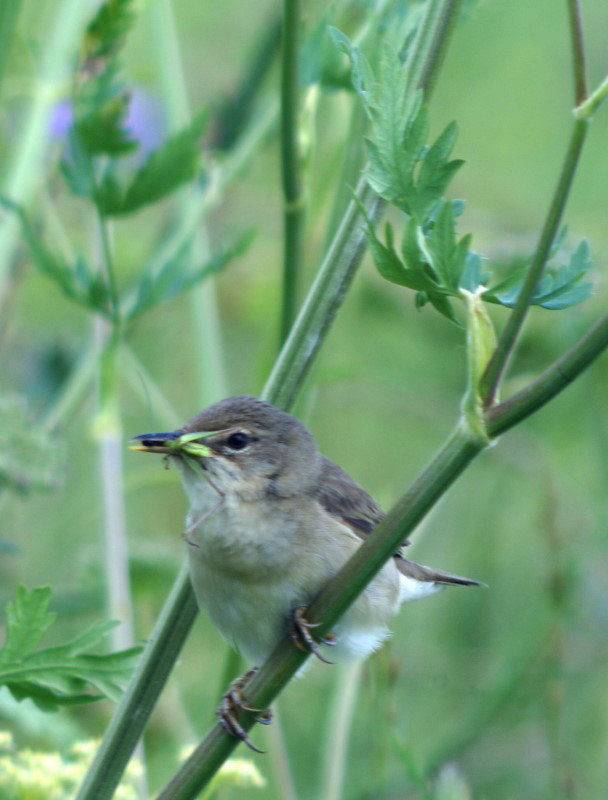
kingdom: Animalia
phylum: Chordata
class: Aves
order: Passeriformes
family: Acrocephalidae
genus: Acrocephalus
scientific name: Acrocephalus dumetorum
